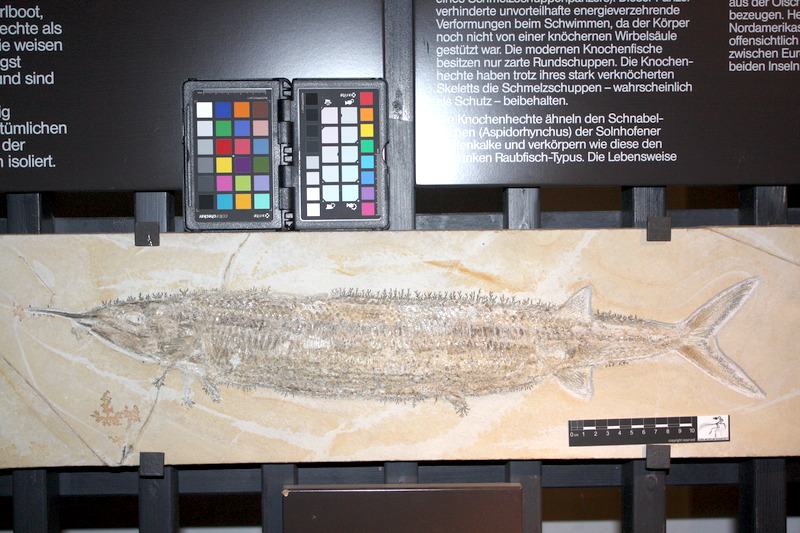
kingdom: Animalia
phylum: Chordata
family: Aspidorhynchidae
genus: Aspidorhynchus
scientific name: Aspidorhynchus acutirostris
